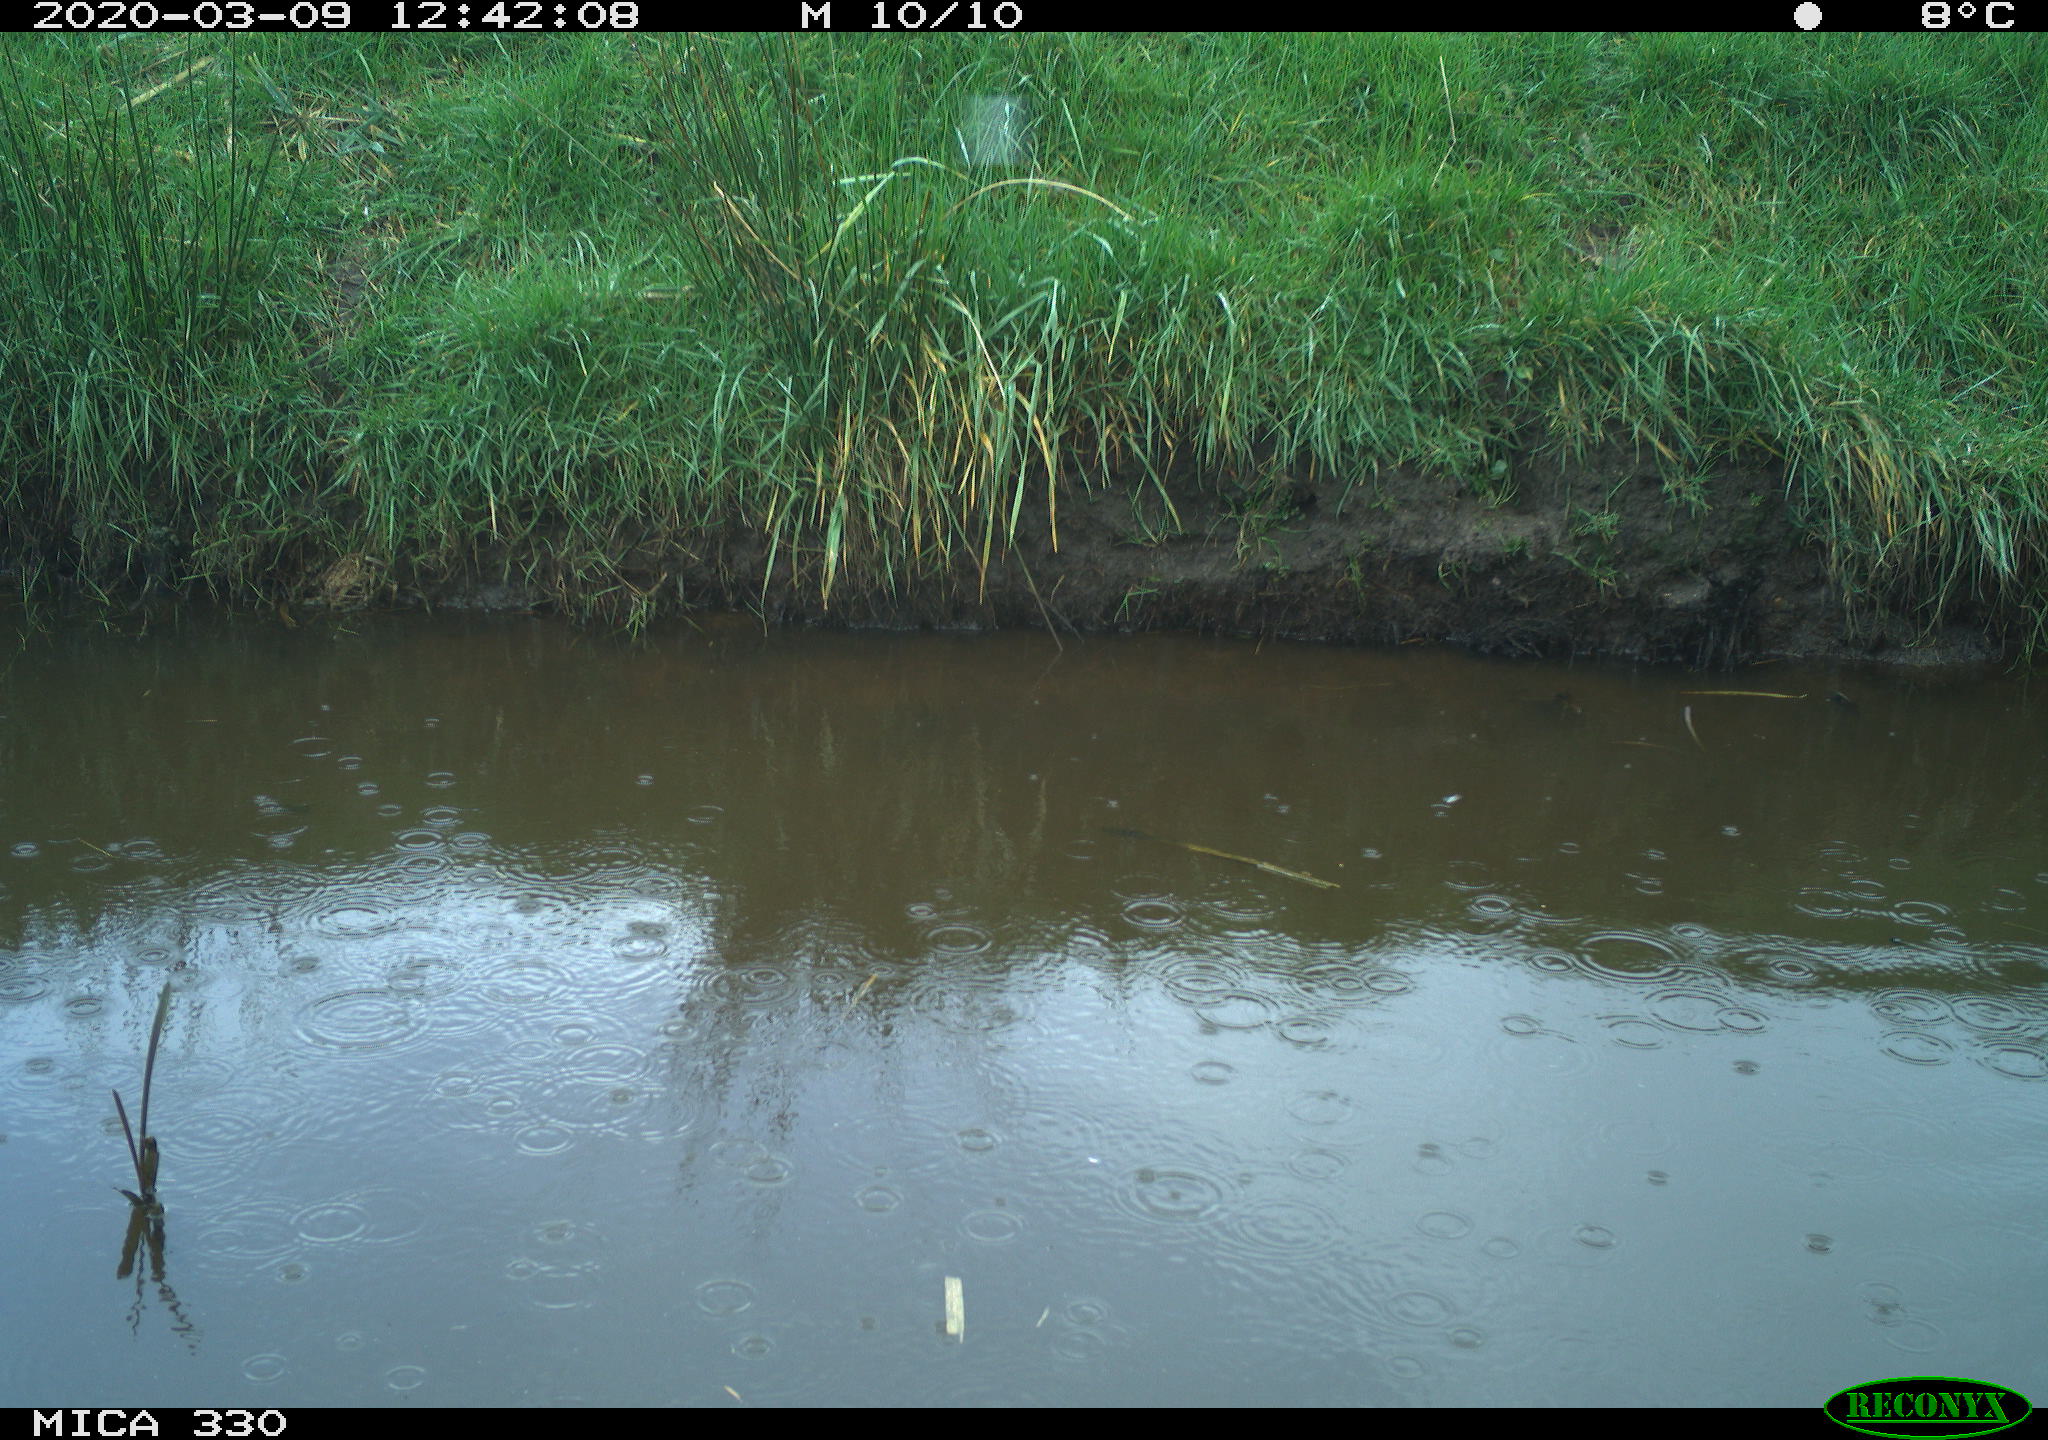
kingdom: Animalia
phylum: Chordata
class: Aves
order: Gruiformes
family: Rallidae
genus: Gallinula
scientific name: Gallinula chloropus
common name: Common moorhen
